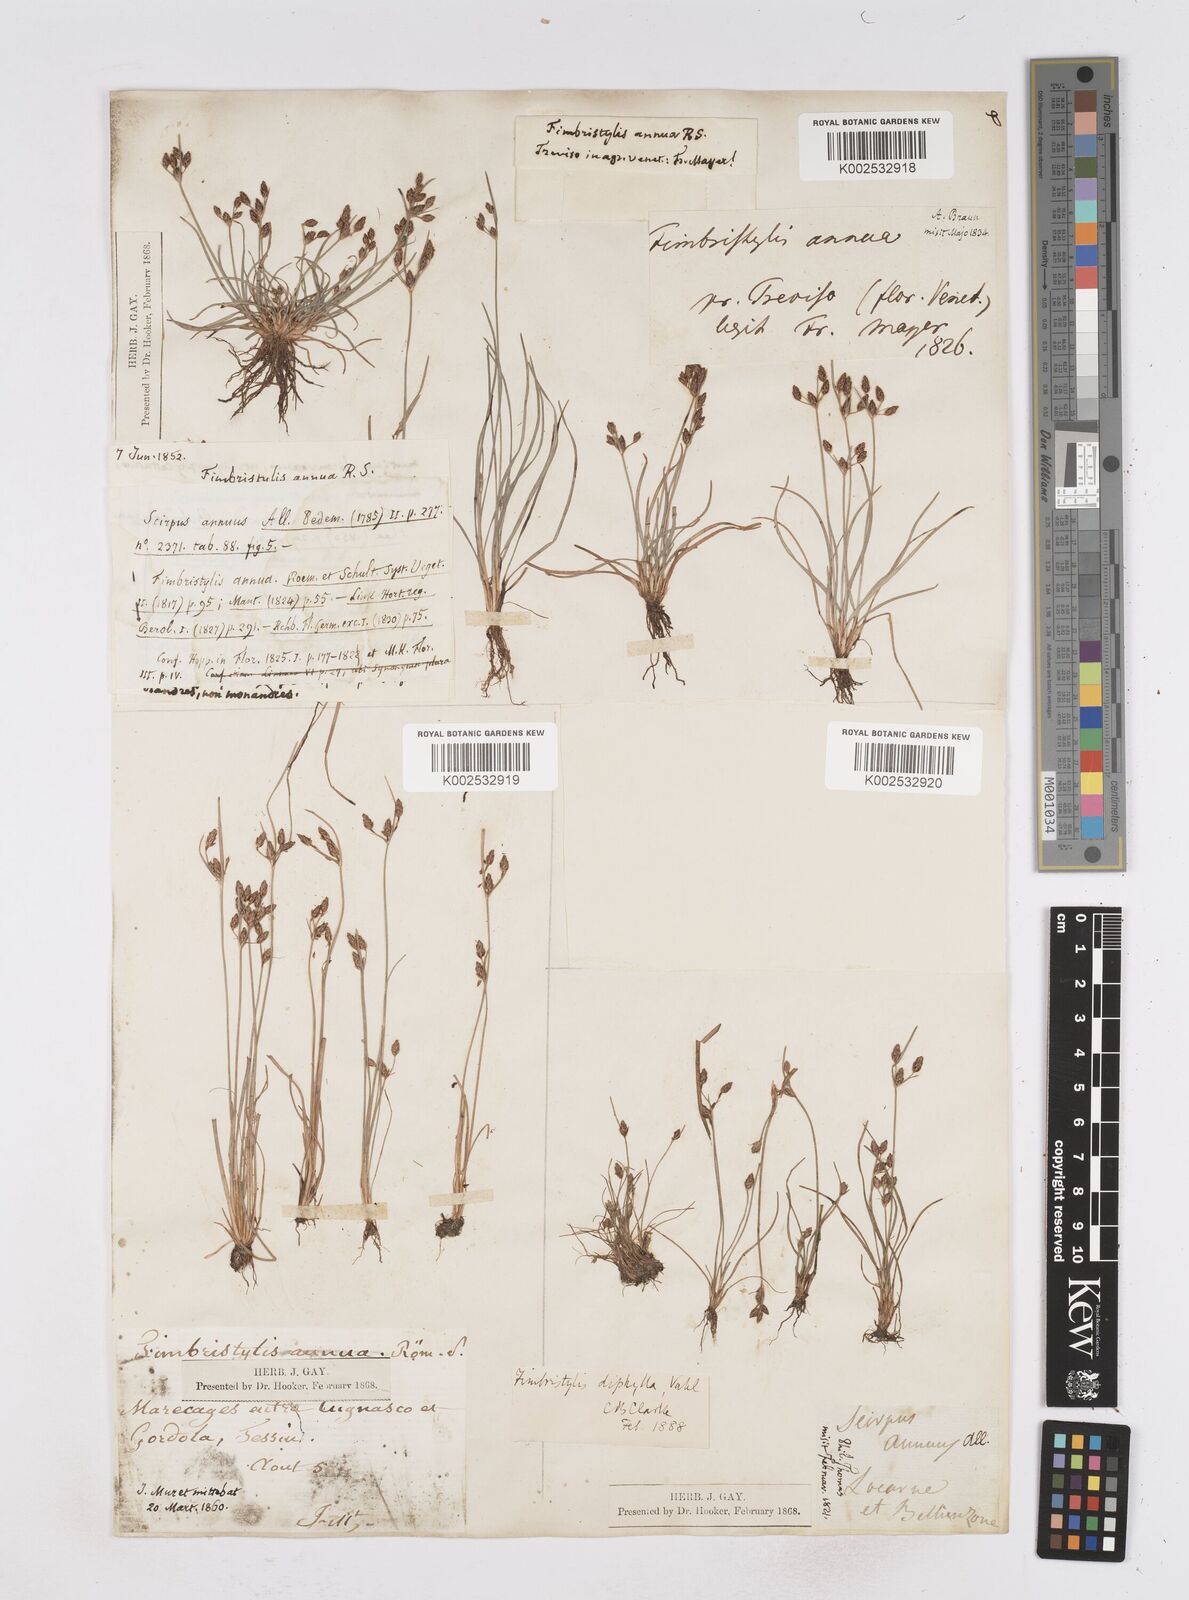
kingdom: Plantae
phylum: Tracheophyta
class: Liliopsida
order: Poales
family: Cyperaceae
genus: Fimbristylis
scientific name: Fimbristylis dichotoma
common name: Forked fimbry
